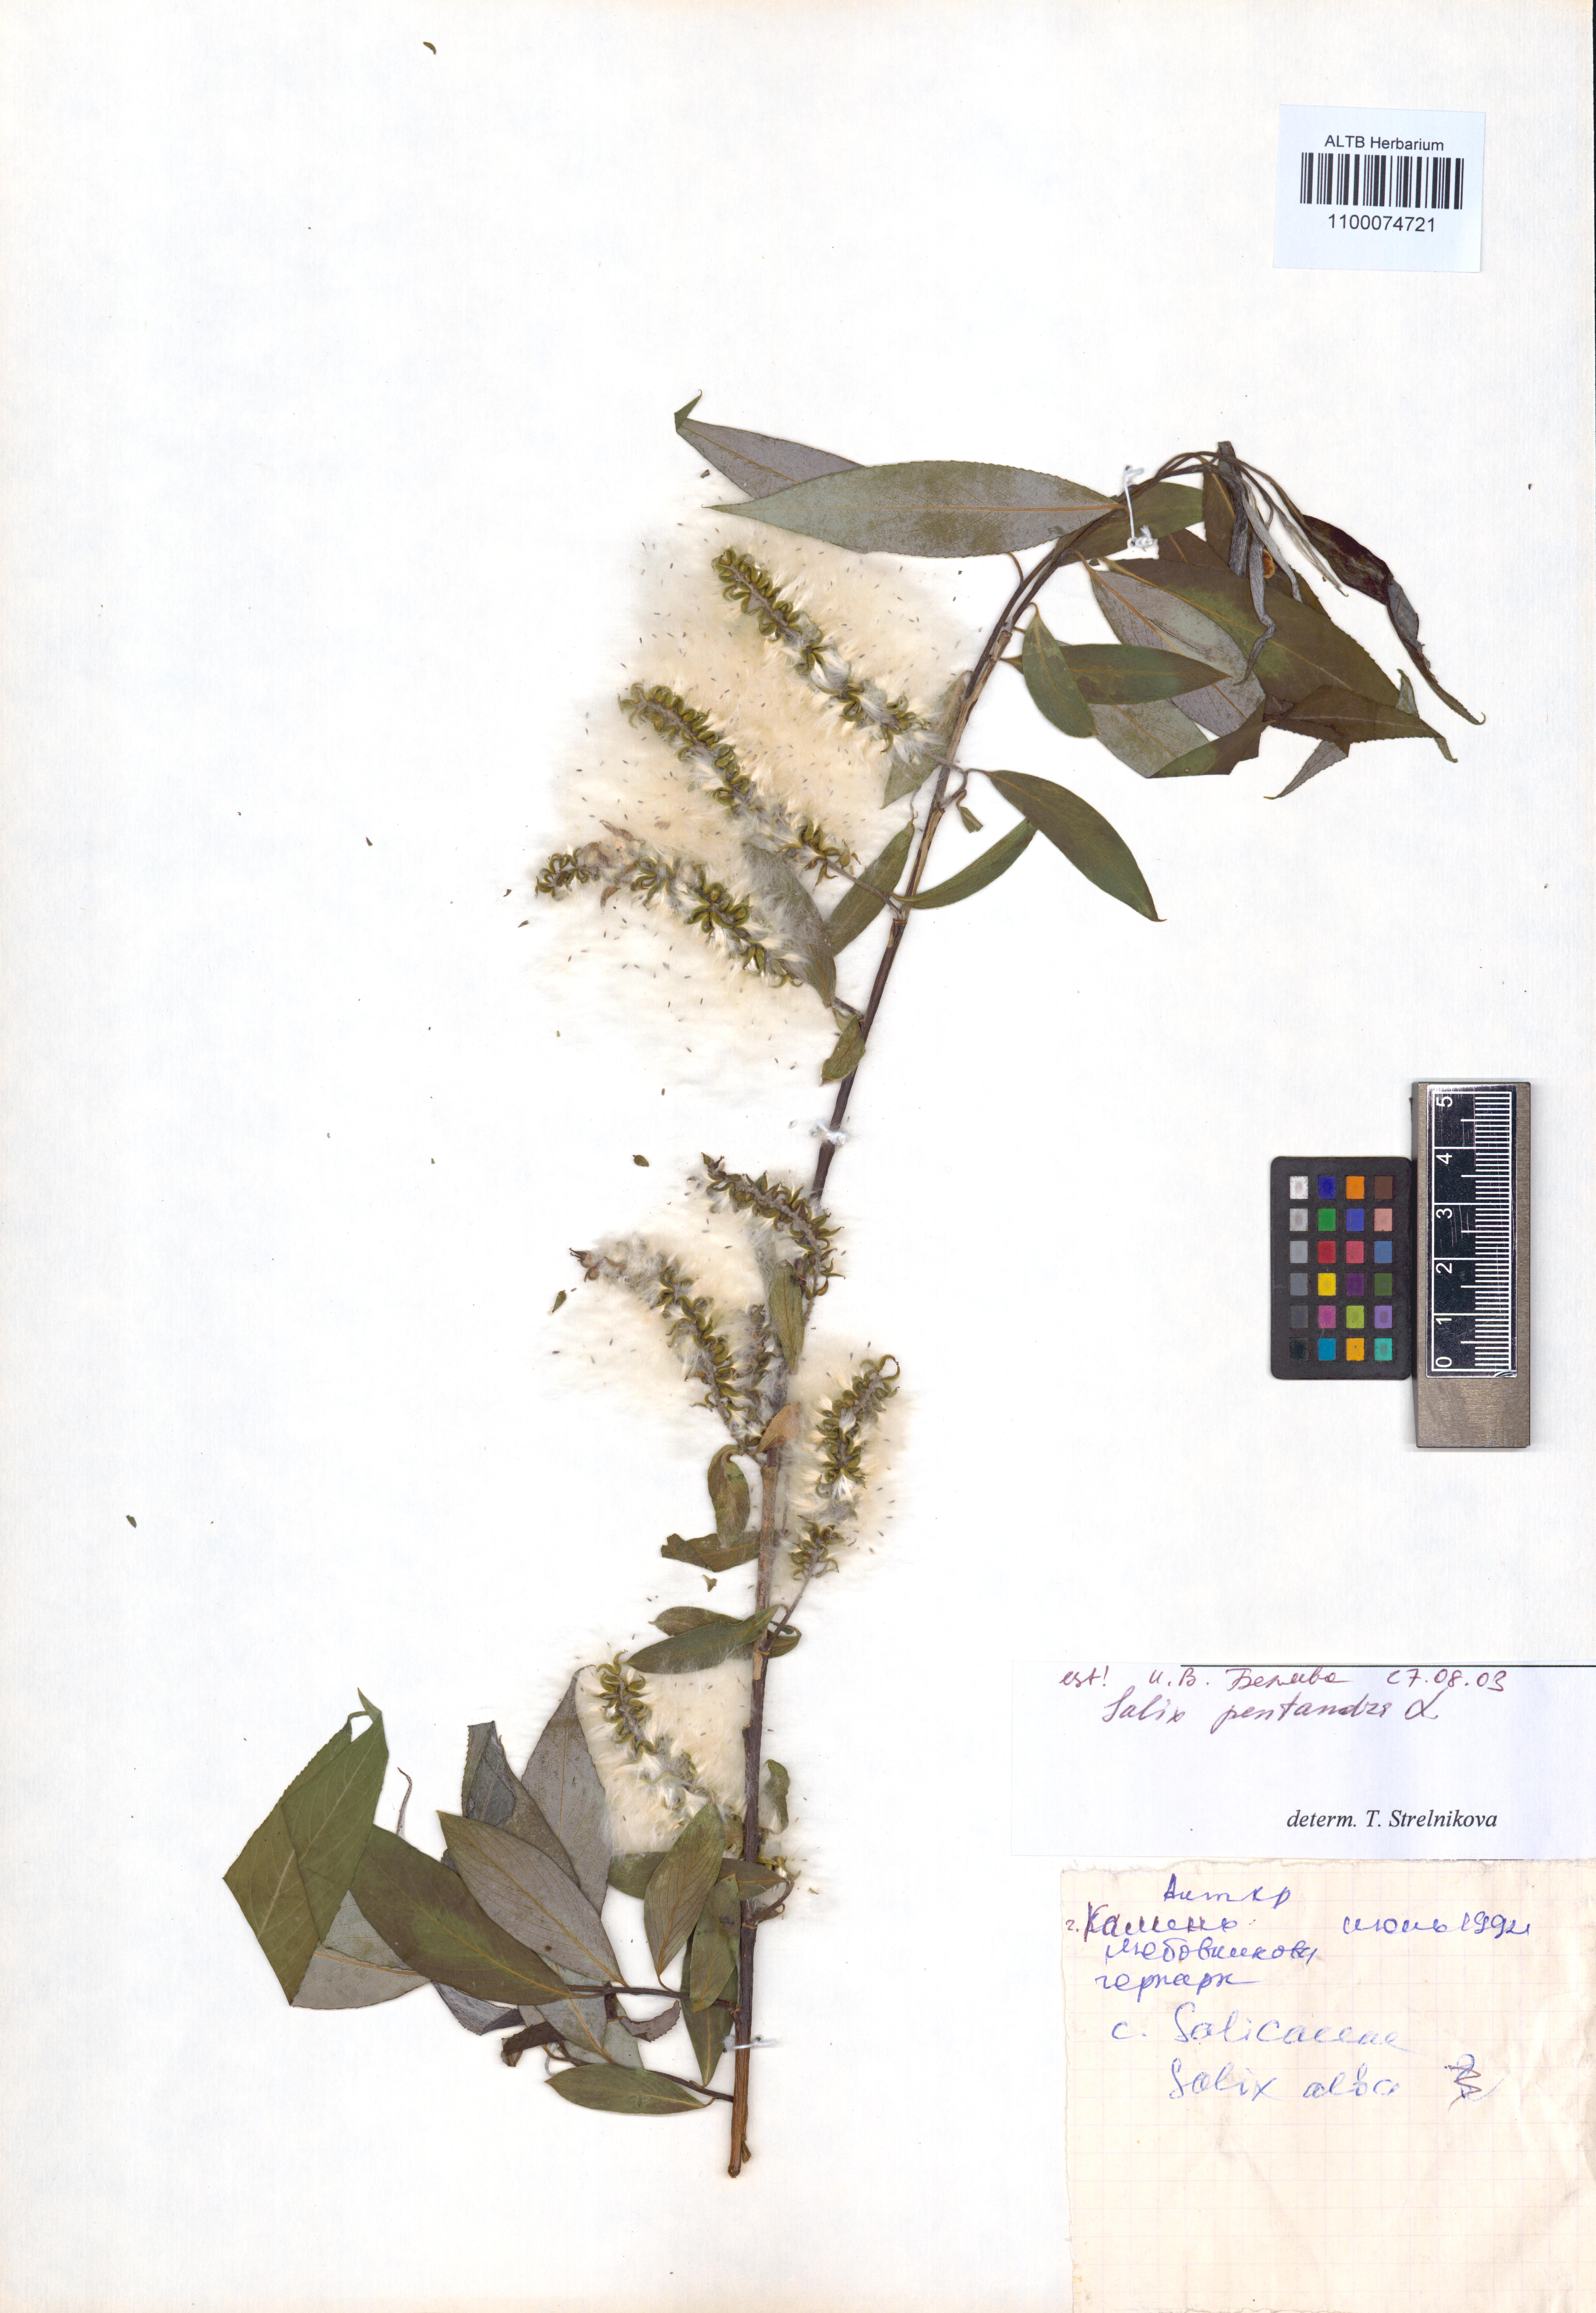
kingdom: Plantae
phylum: Tracheophyta
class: Magnoliopsida
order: Malpighiales
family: Salicaceae
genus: Salix
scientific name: Salix pentandra
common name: Bay willow
